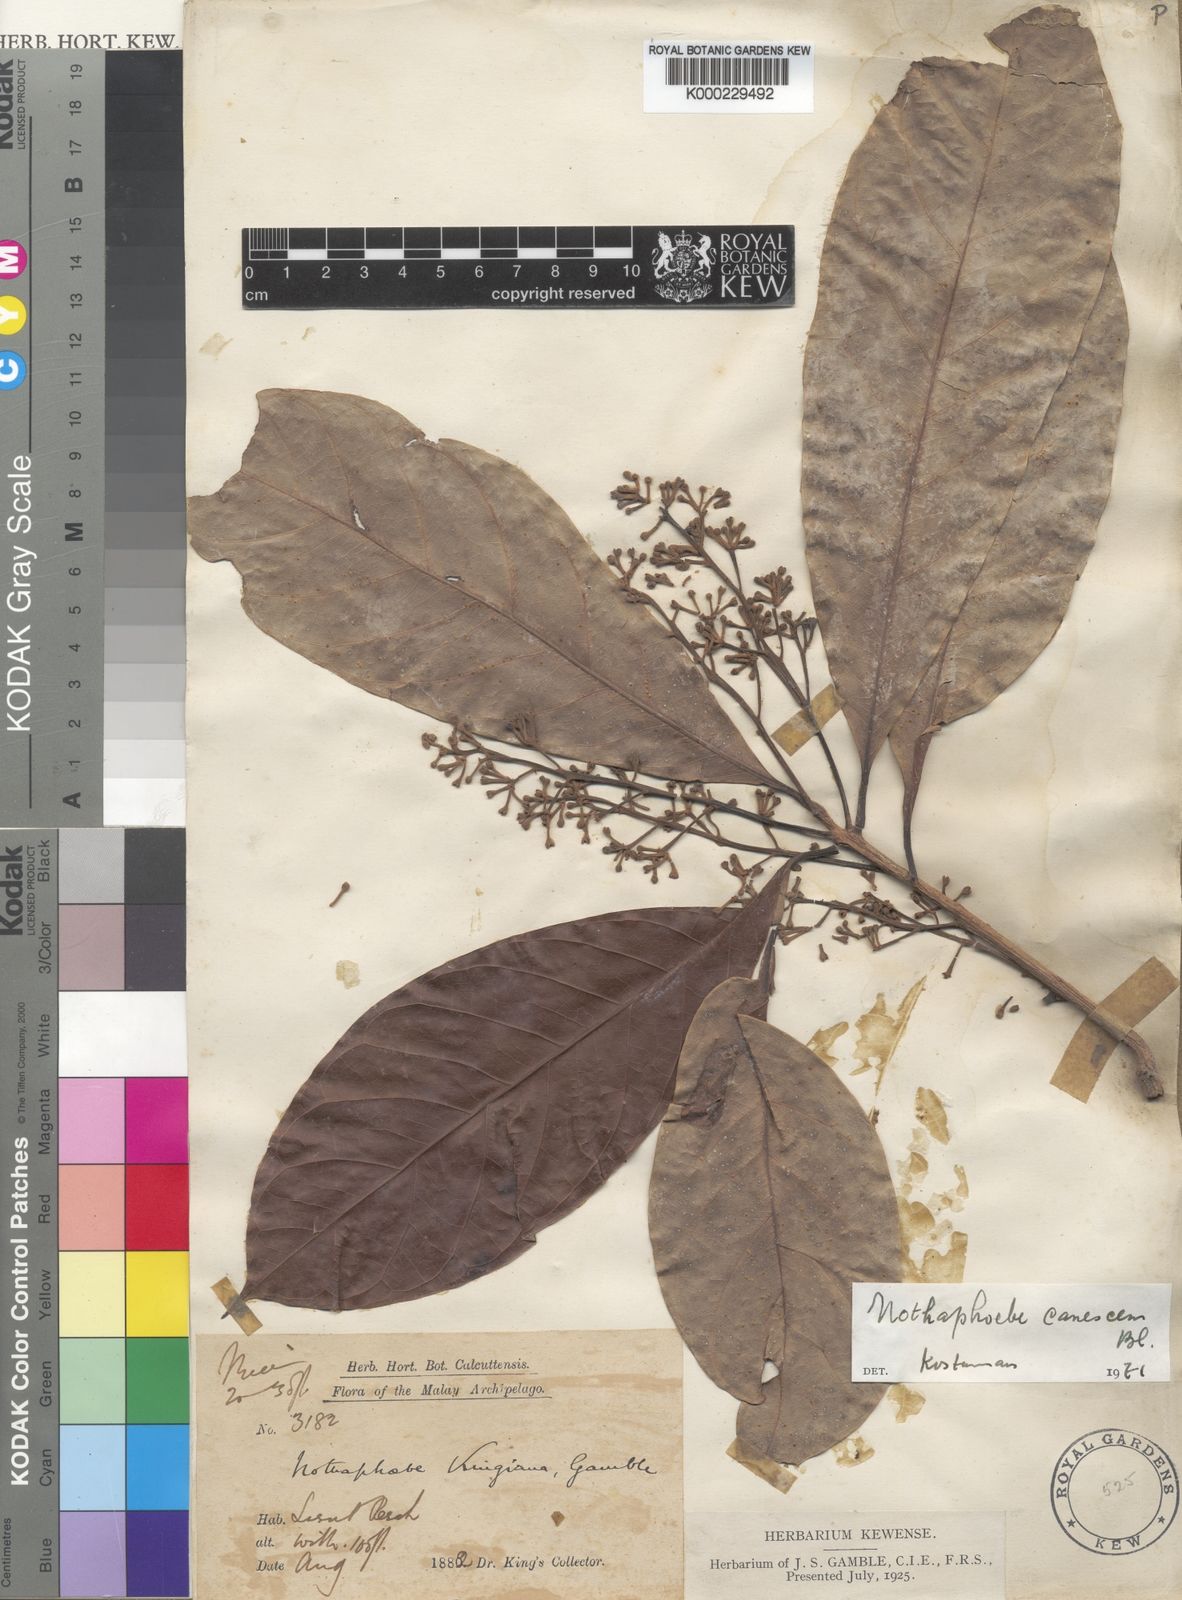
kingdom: Plantae
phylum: Tracheophyta
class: Magnoliopsida
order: Laurales
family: Lauraceae
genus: Phoebe
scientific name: Phoebe canescens
